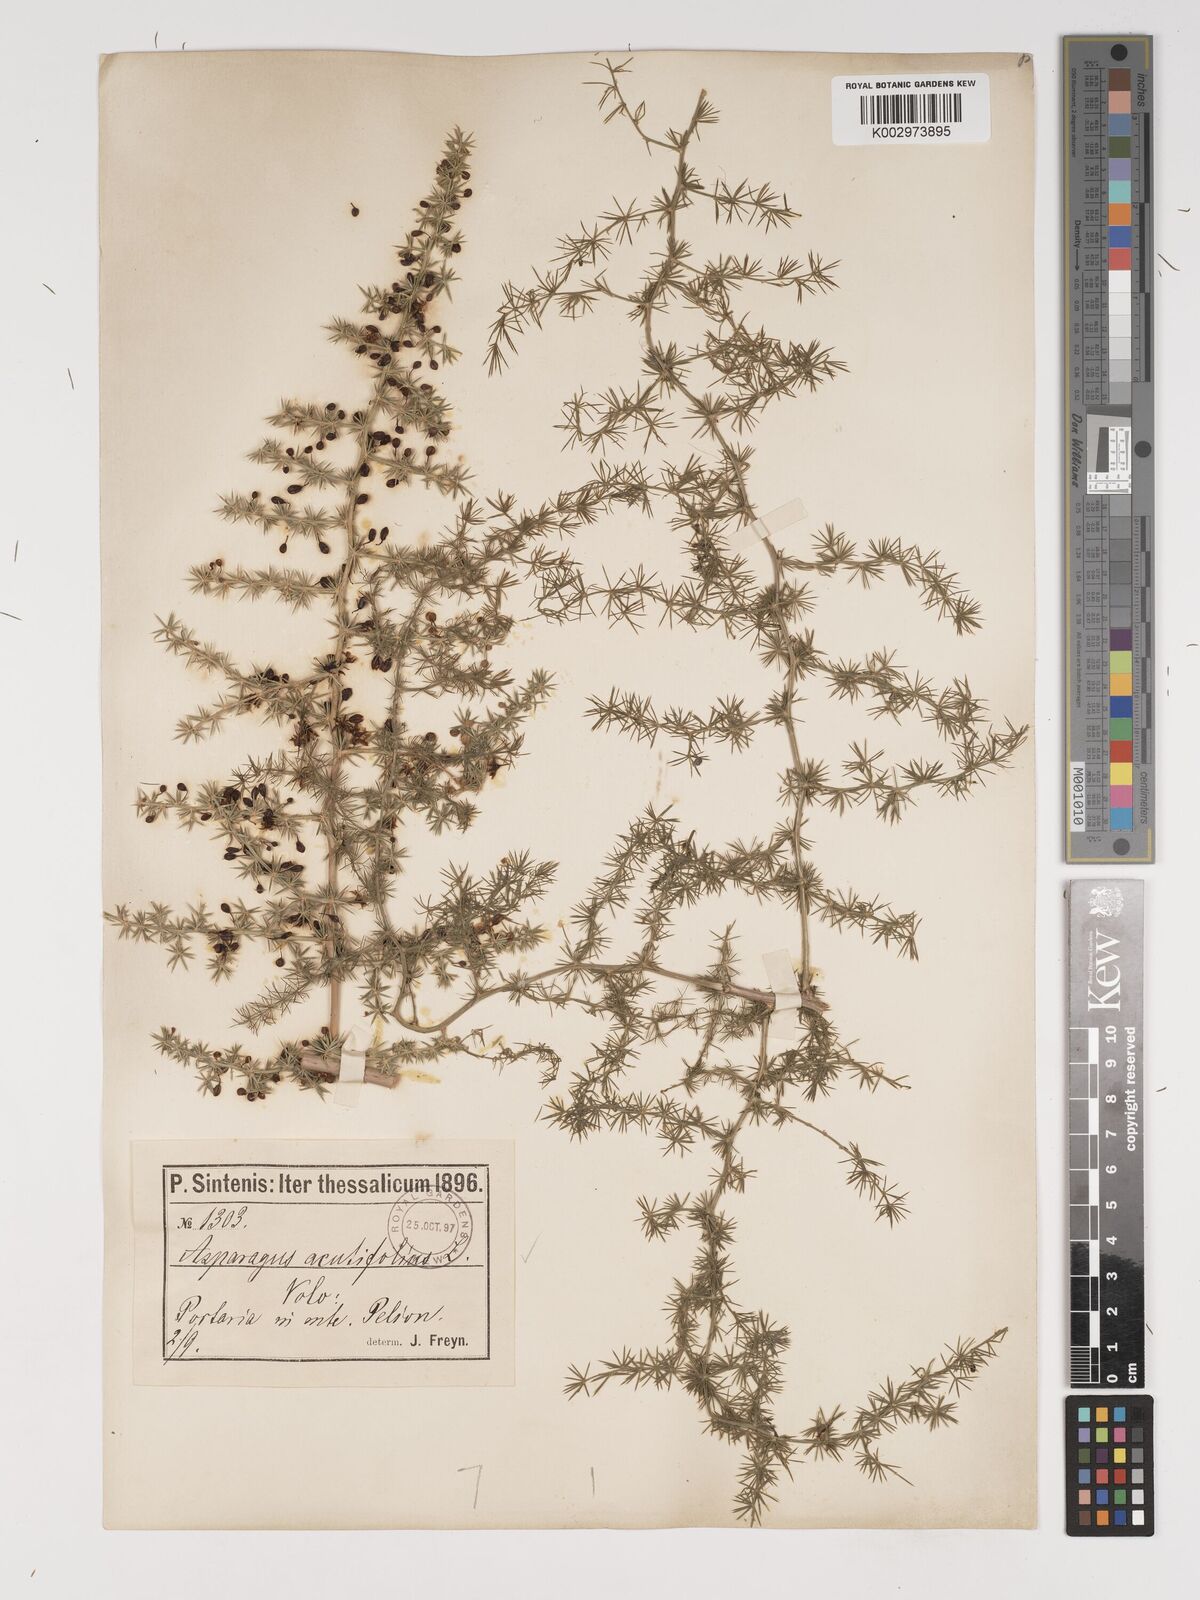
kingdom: Plantae
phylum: Tracheophyta
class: Liliopsida
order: Asparagales
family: Asparagaceae
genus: Asparagus
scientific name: Asparagus acutifolius
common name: Wild asparagus
